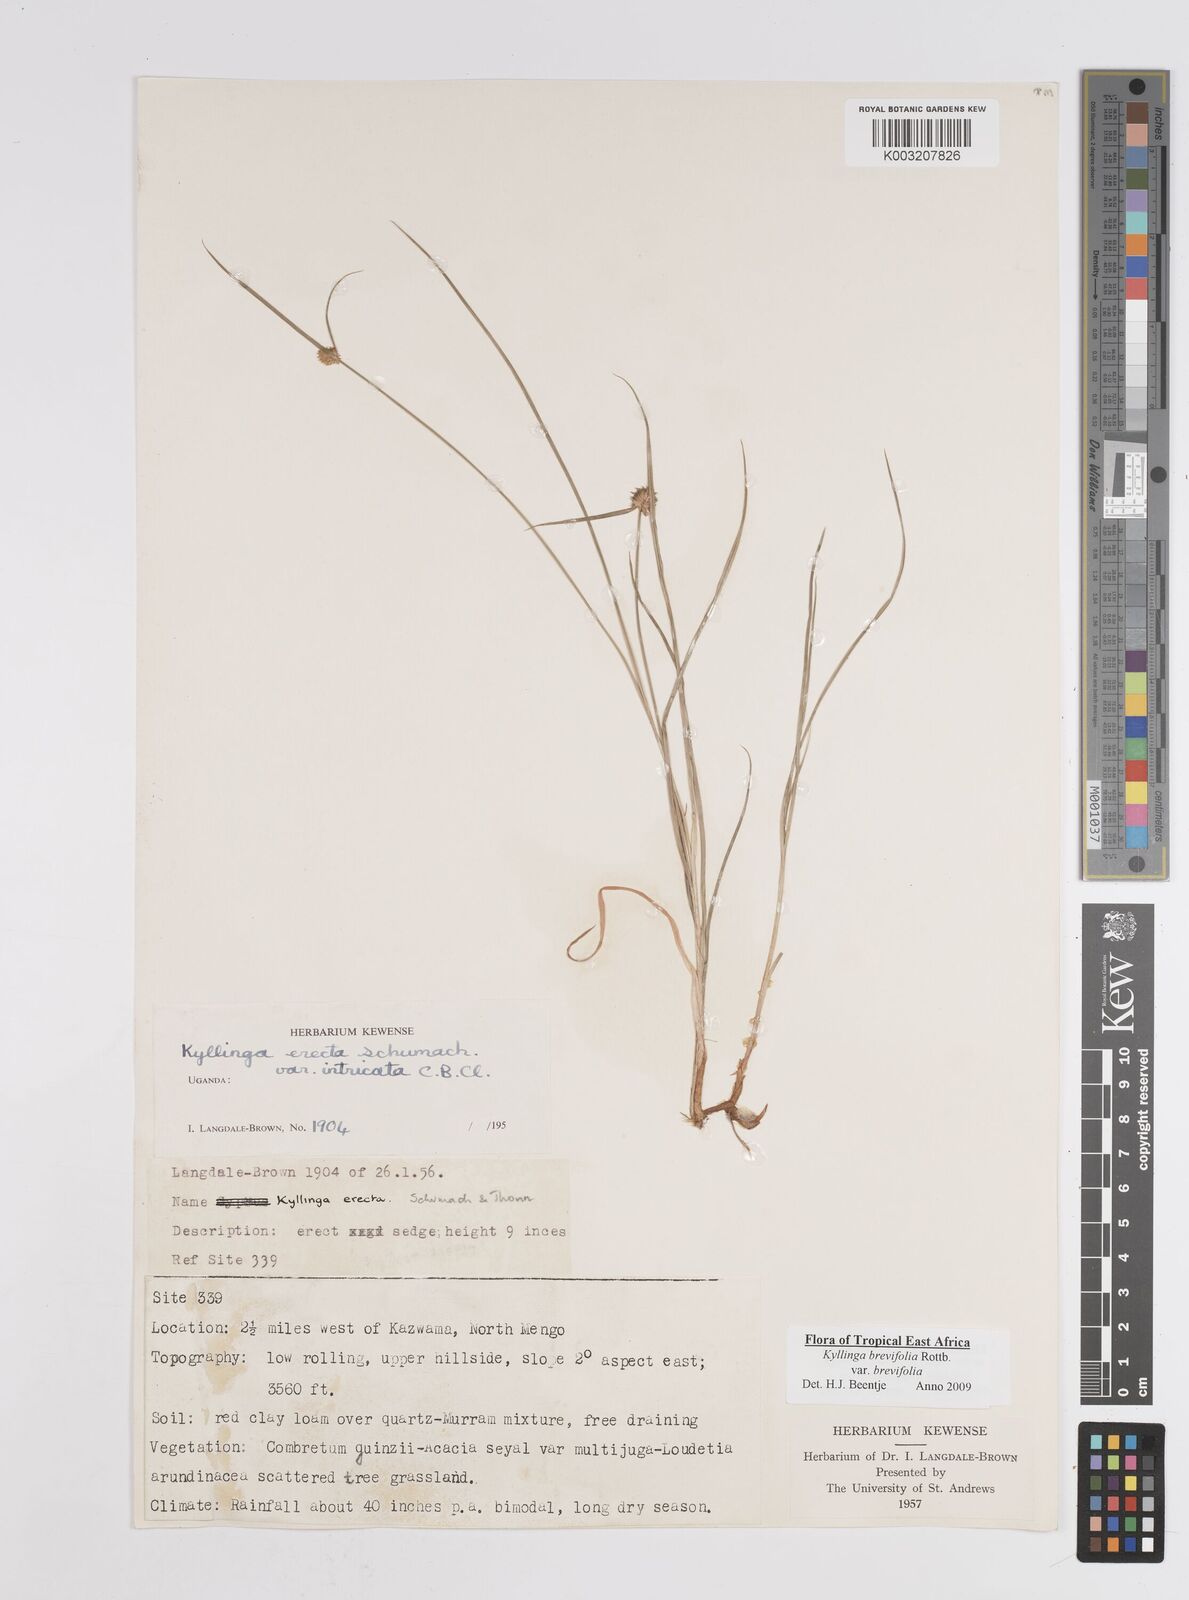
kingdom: Plantae
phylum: Tracheophyta
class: Liliopsida
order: Poales
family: Cyperaceae
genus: Cyperus
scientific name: Cyperus erectus
